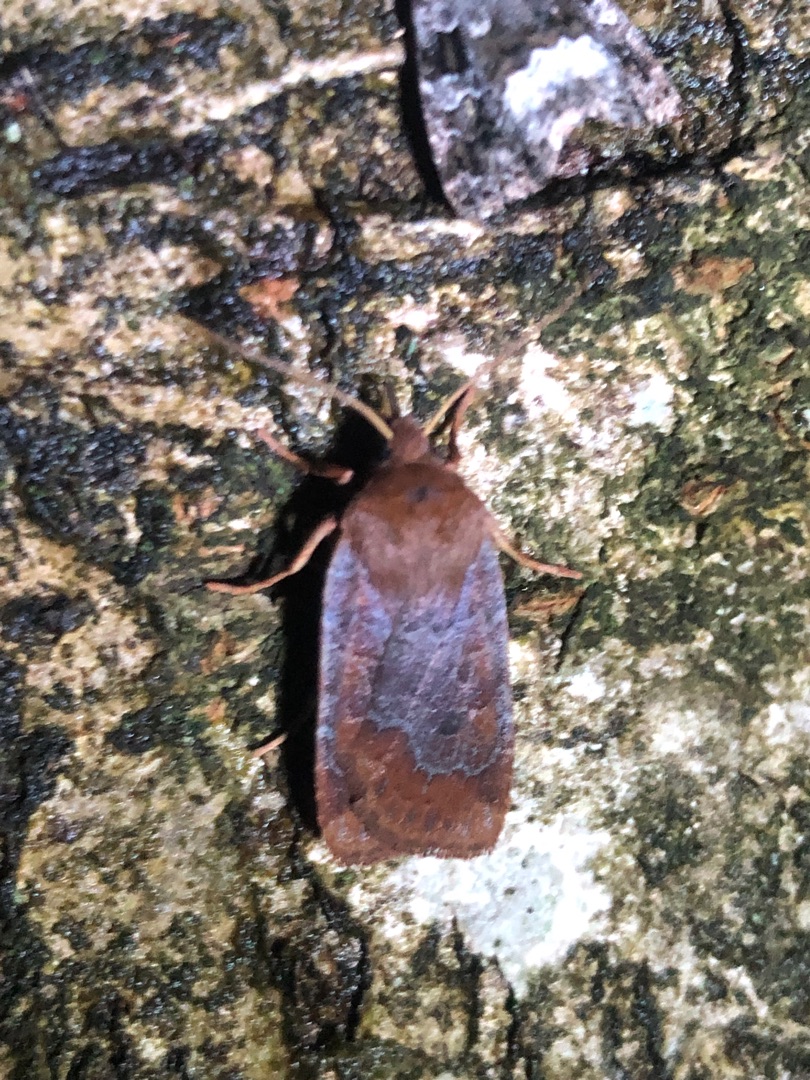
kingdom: Animalia
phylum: Arthropoda
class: Insecta
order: Lepidoptera
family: Noctuidae
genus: Conistra
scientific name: Conistra vaccinii
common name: Blåbærugle
